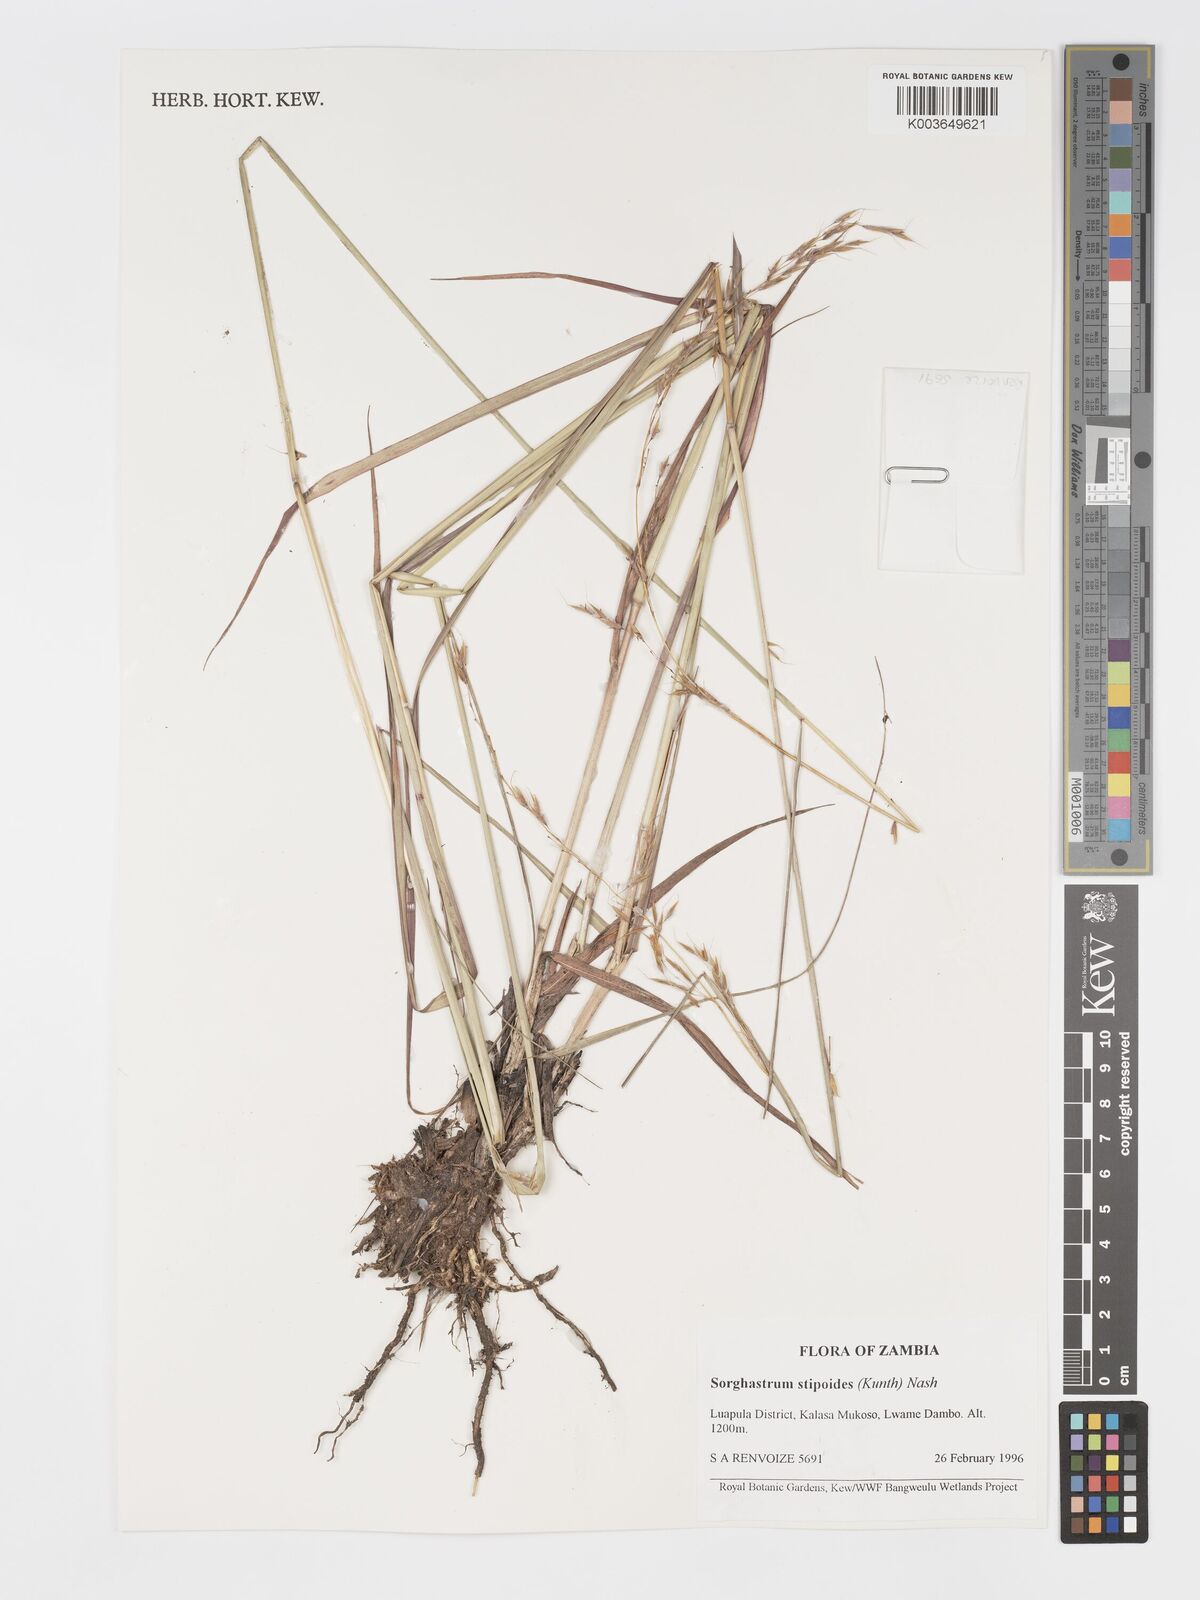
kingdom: Plantae
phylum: Tracheophyta
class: Liliopsida
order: Poales
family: Poaceae
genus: Sorghastrum
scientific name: Sorghastrum stipoides
